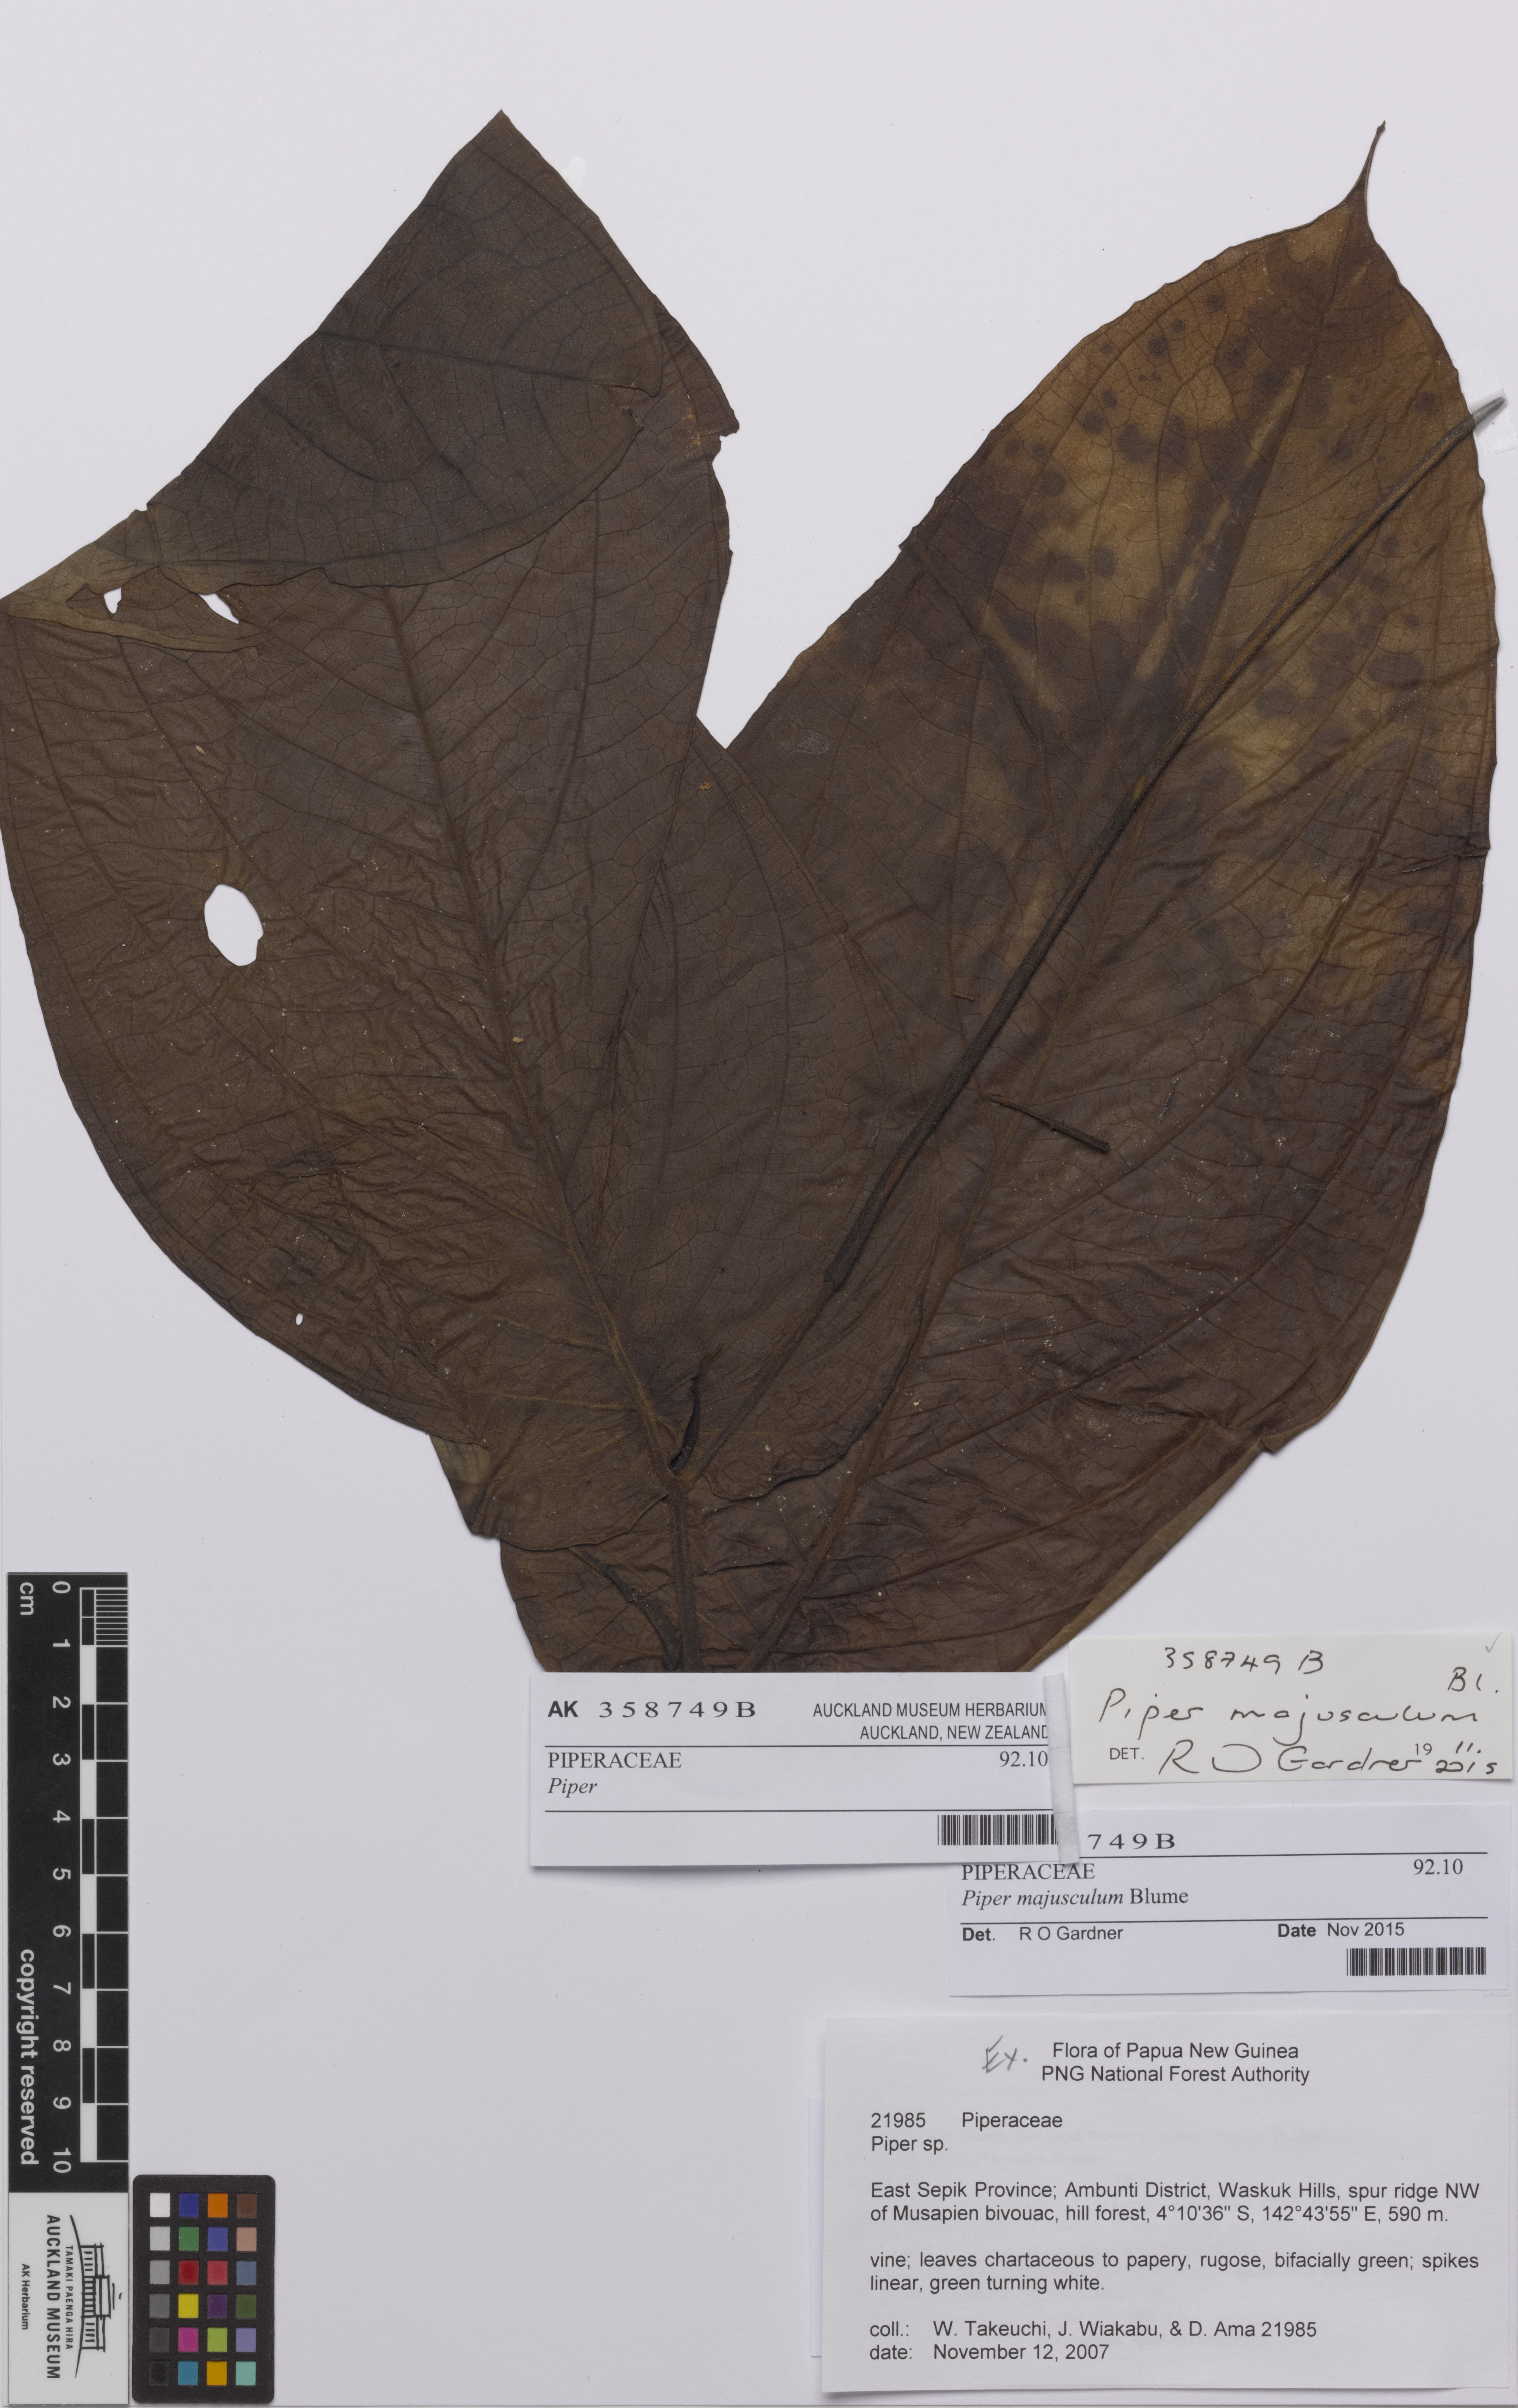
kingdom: Plantae
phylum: Tracheophyta
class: Magnoliopsida
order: Piperales
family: Piperaceae
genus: Piper
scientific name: Piper majusculum
